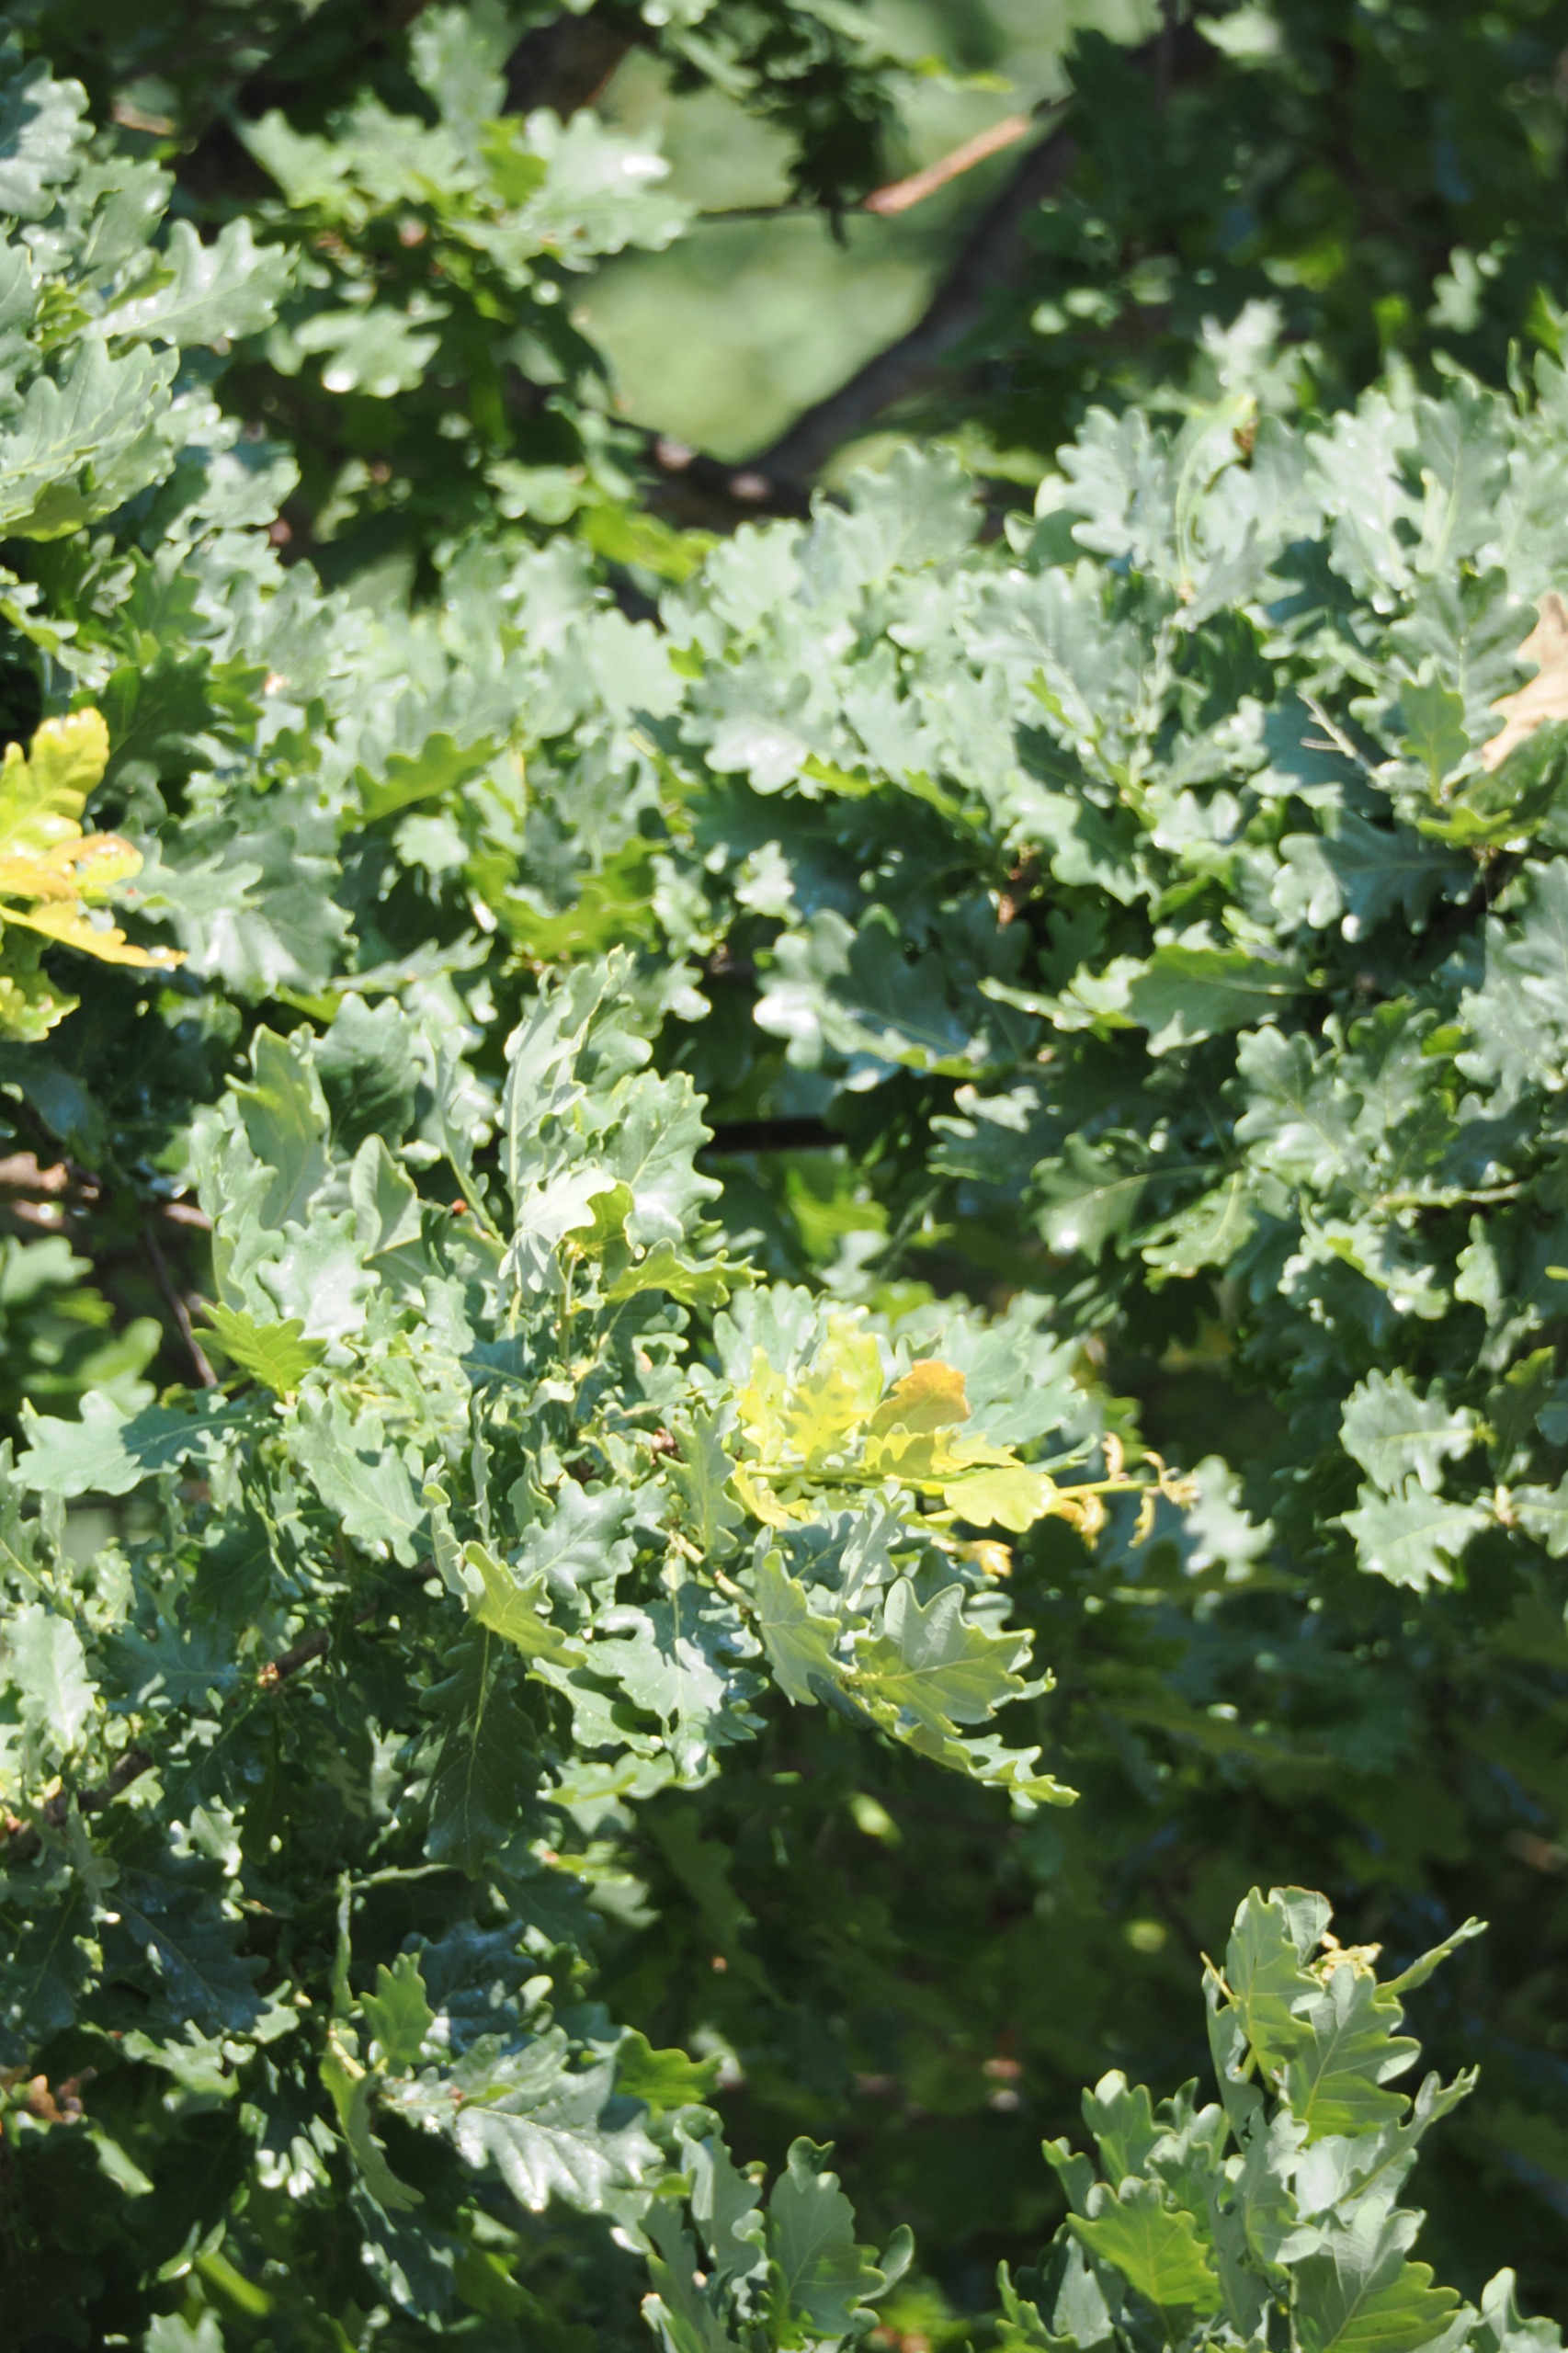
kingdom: Plantae
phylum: Tracheophyta
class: Magnoliopsida
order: Fagales
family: Fagaceae
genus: Quercus
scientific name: Quercus robur
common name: Stilk-eg/almindelig eg
